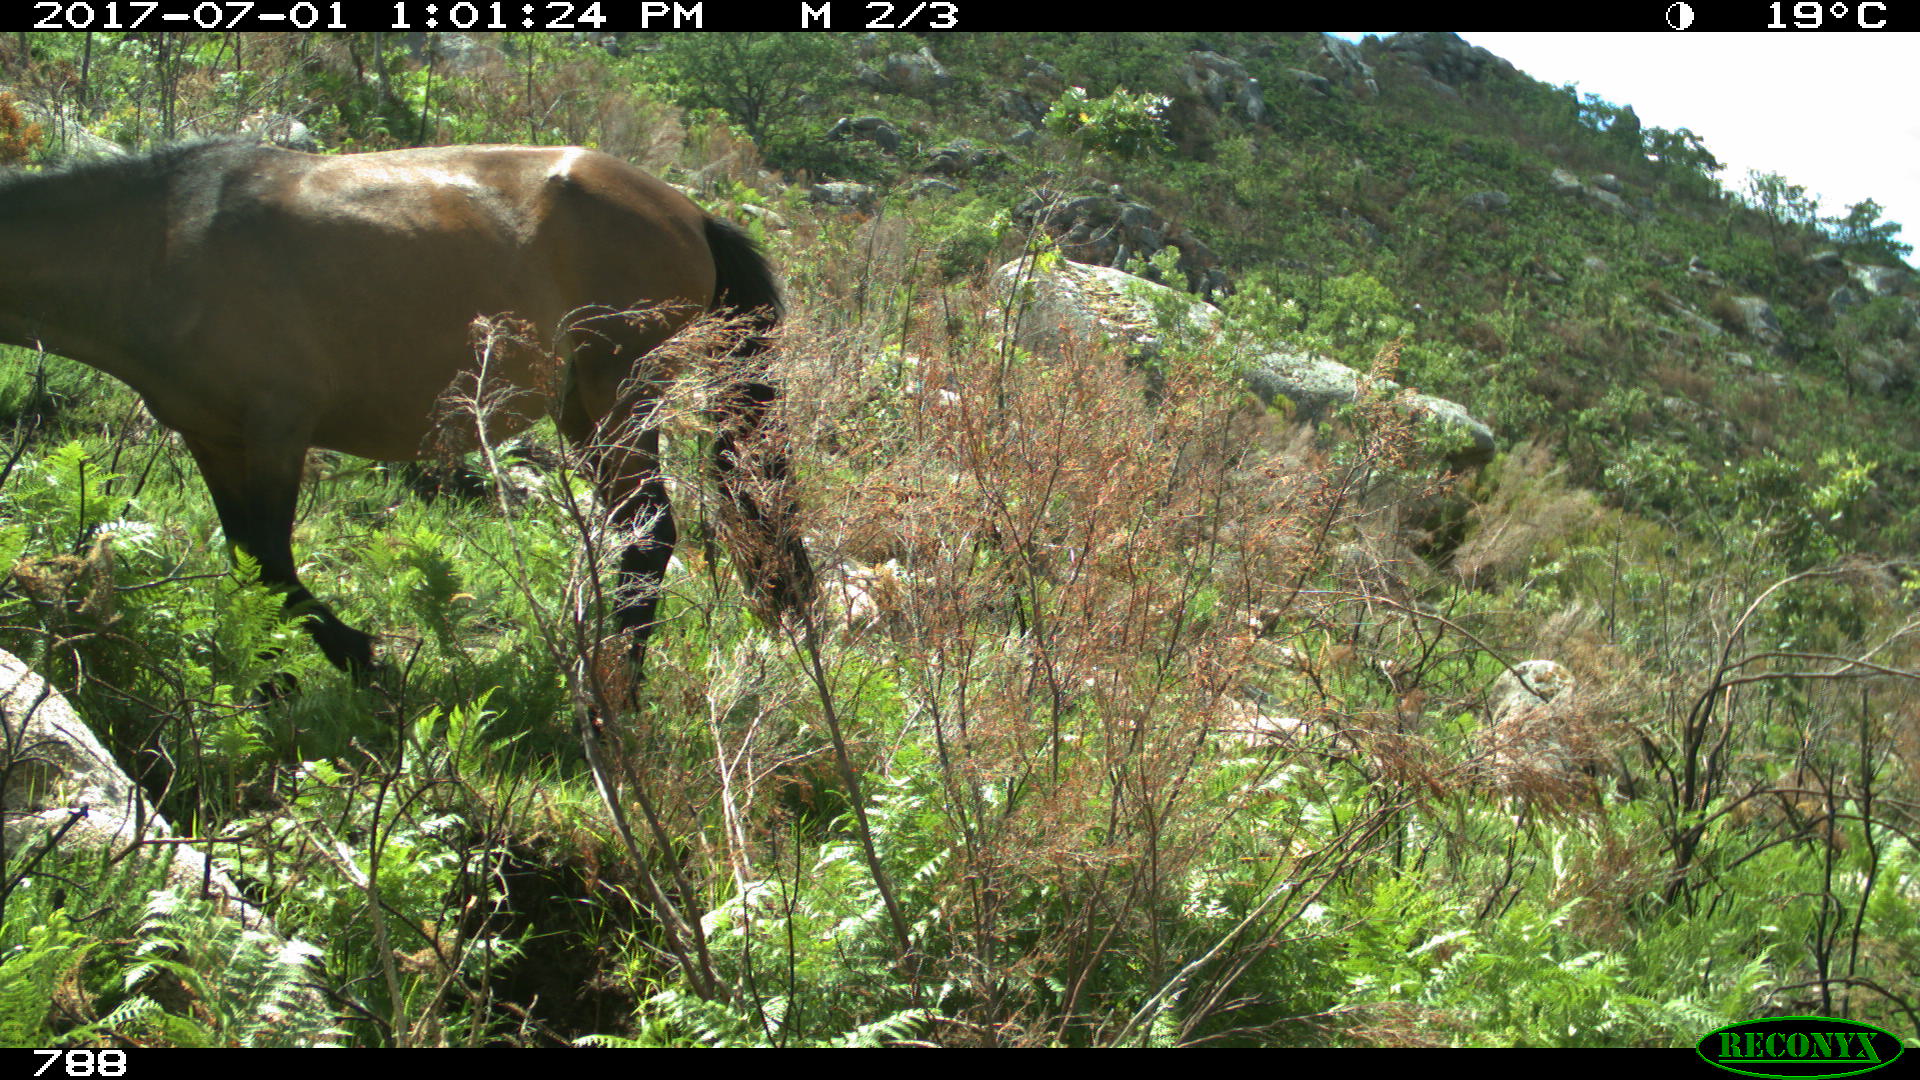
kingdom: Animalia
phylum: Chordata
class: Mammalia
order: Perissodactyla
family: Equidae
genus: Equus
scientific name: Equus caballus
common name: Horse
